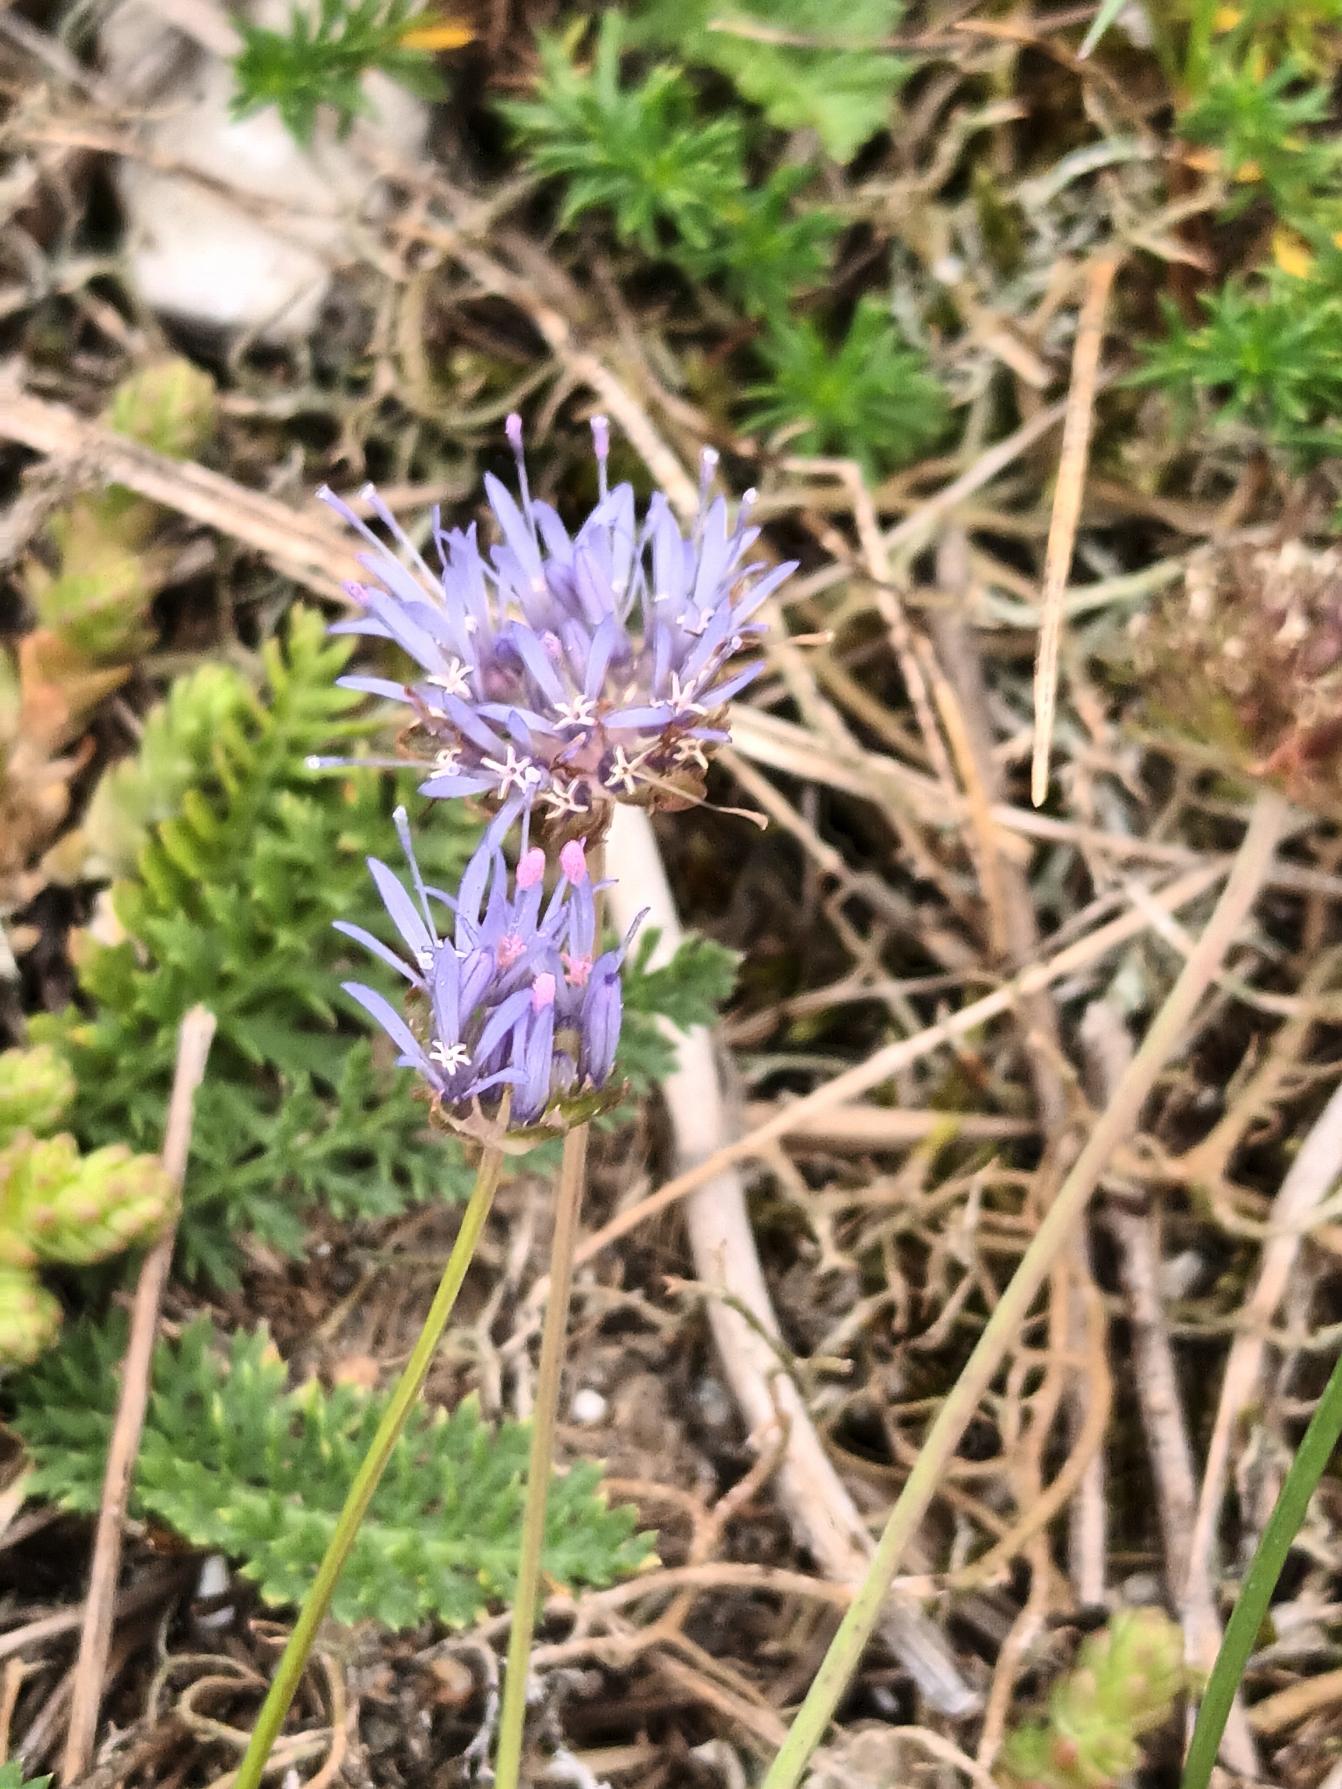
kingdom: Plantae
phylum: Tracheophyta
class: Magnoliopsida
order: Asterales
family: Campanulaceae
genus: Jasione
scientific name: Jasione montana
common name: Blåmunke
